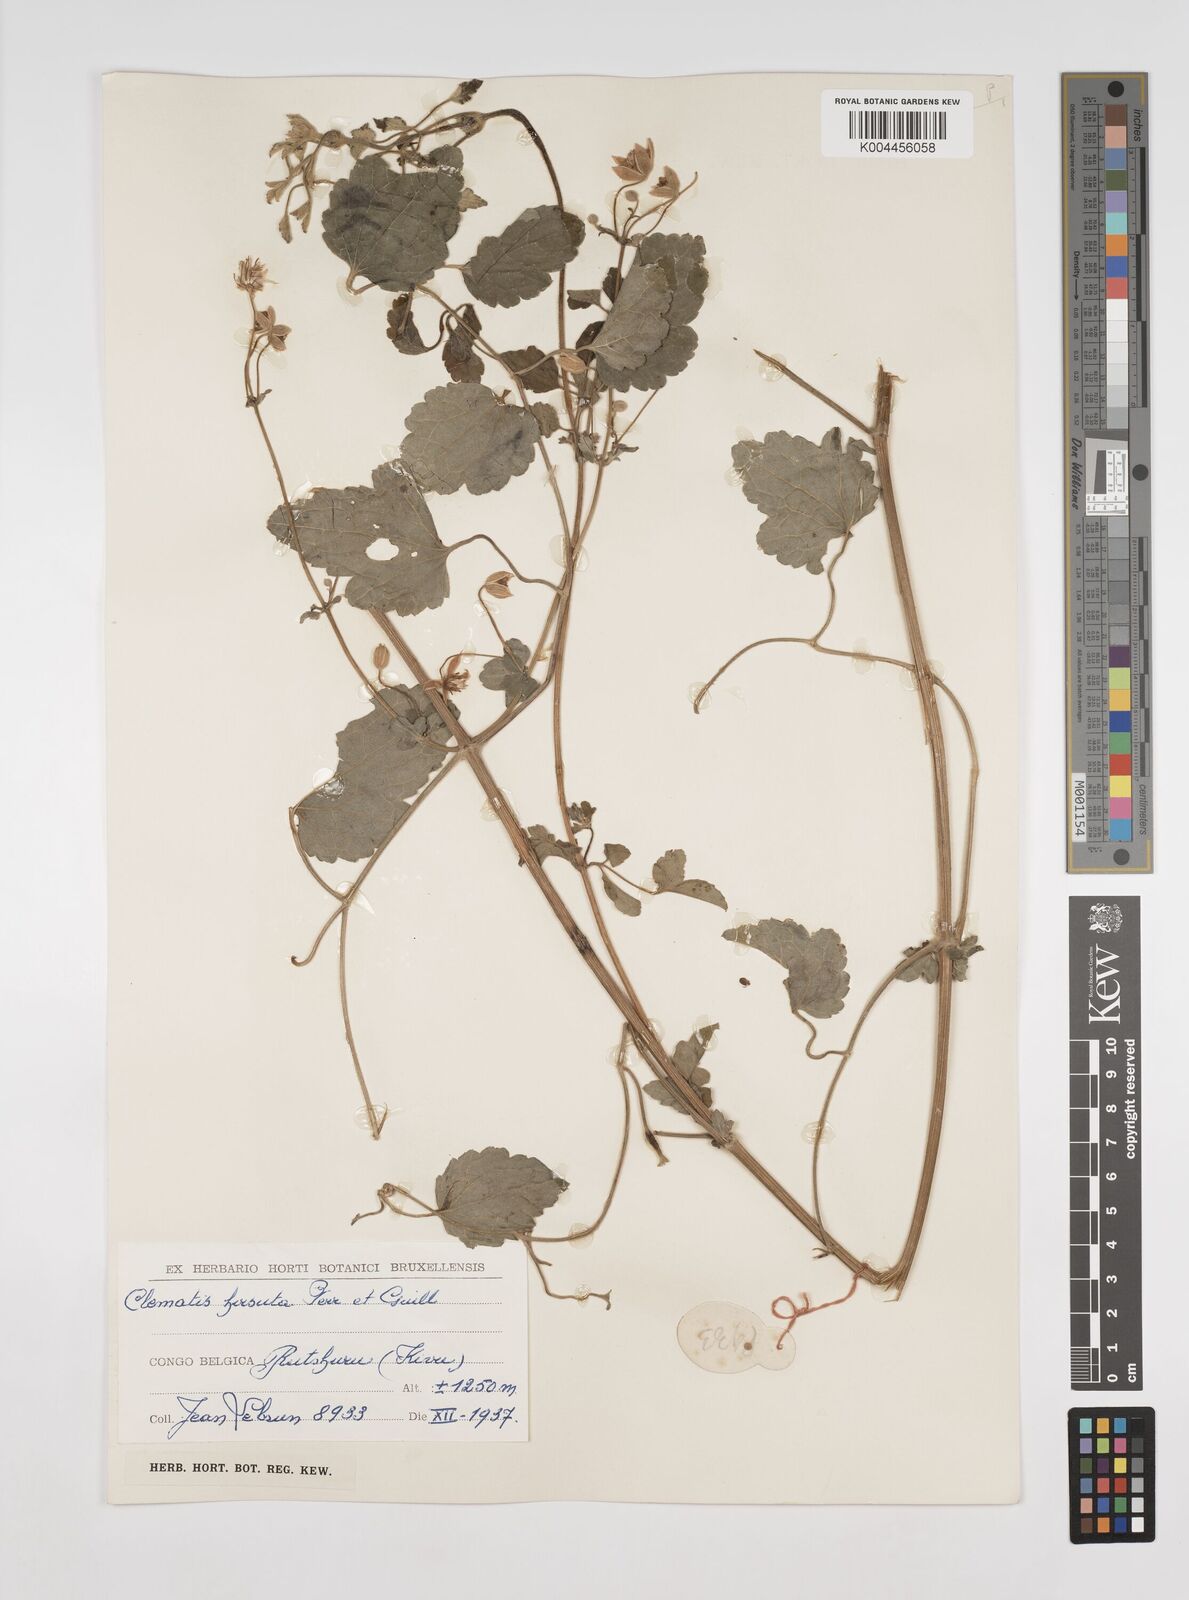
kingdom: Plantae
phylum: Tracheophyta
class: Magnoliopsida
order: Ranunculales
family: Ranunculaceae
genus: Clematis
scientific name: Clematis hirsuta
